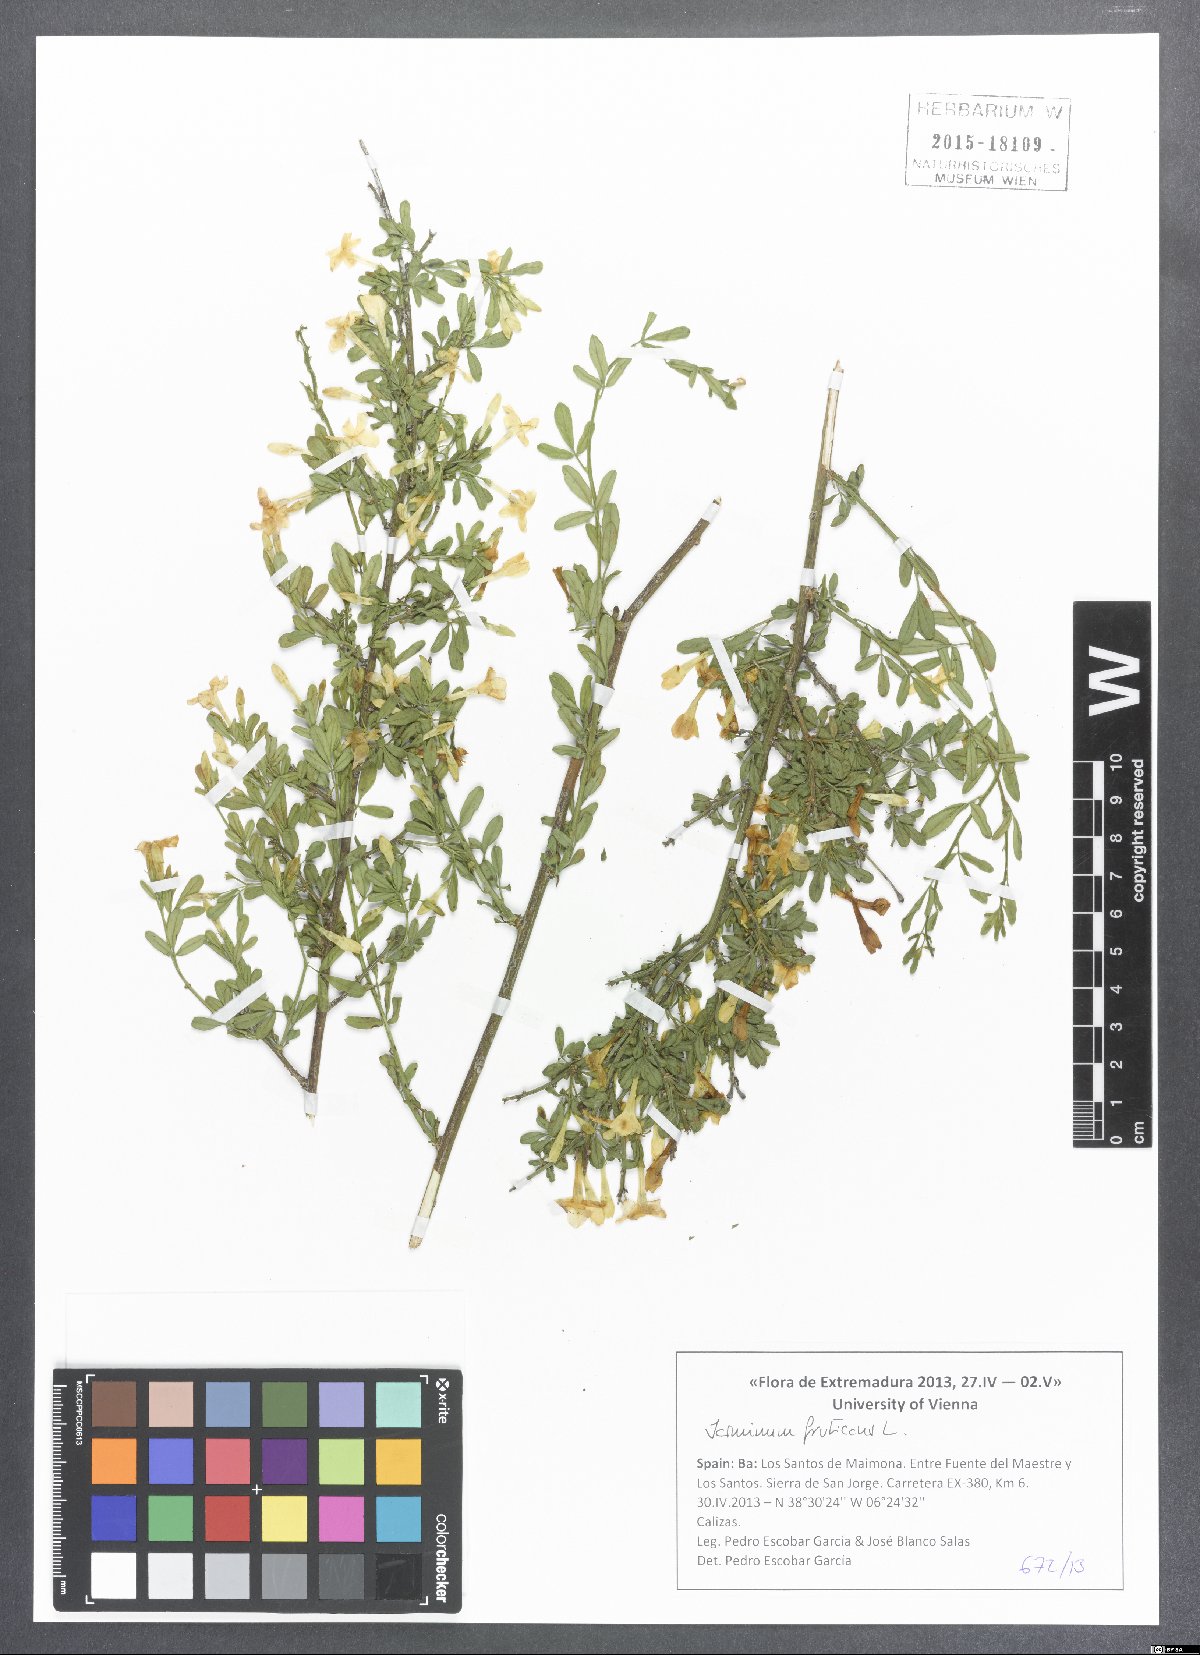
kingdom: Plantae
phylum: Tracheophyta
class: Magnoliopsida
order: Lamiales
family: Oleaceae
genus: Chrysojasminum
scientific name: Chrysojasminum fruticans
